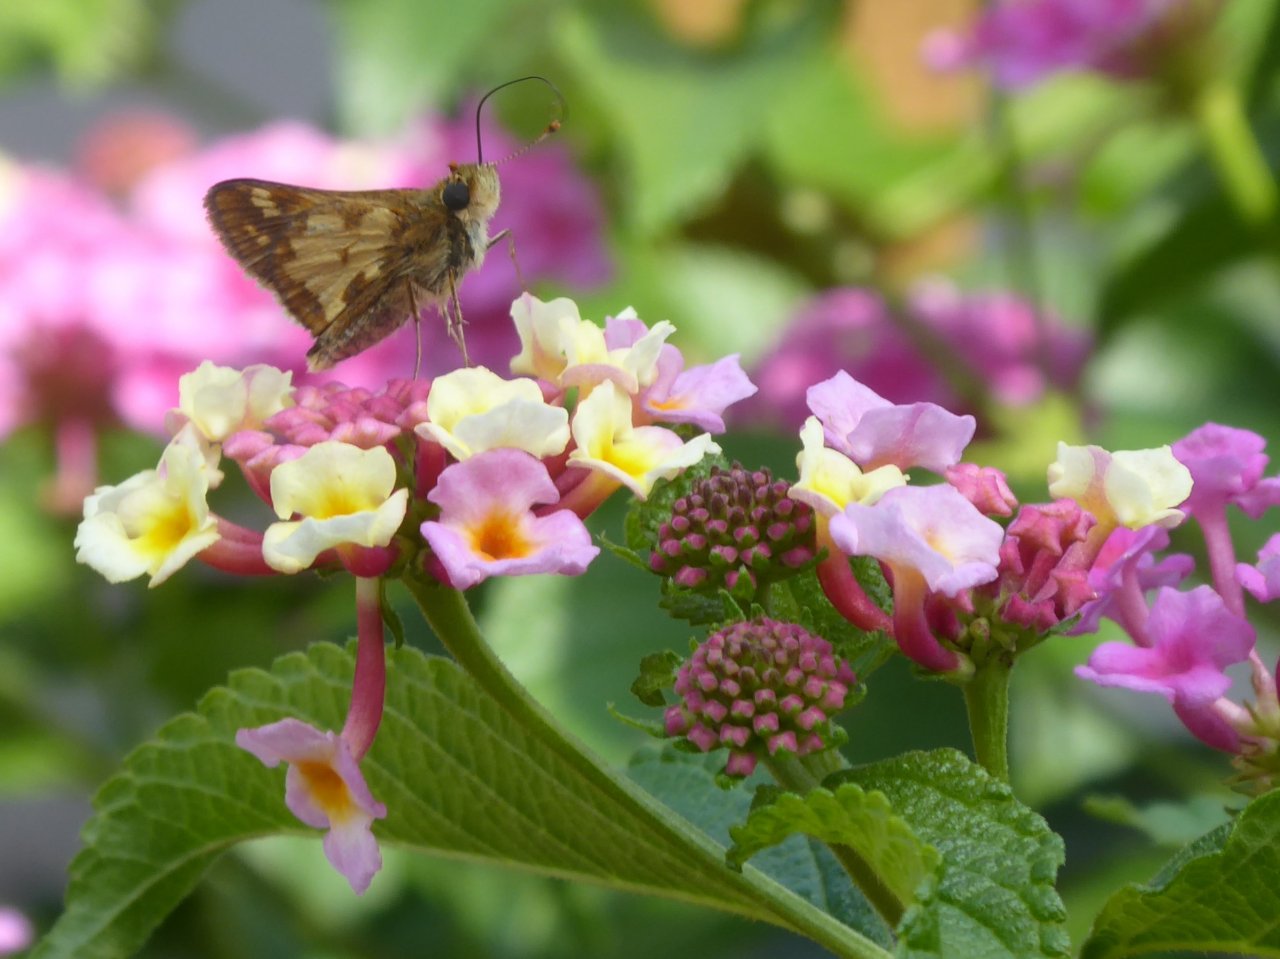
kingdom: Animalia
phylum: Arthropoda
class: Insecta
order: Lepidoptera
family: Hesperiidae
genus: Polites
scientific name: Polites coras
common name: Peck's Skipper
